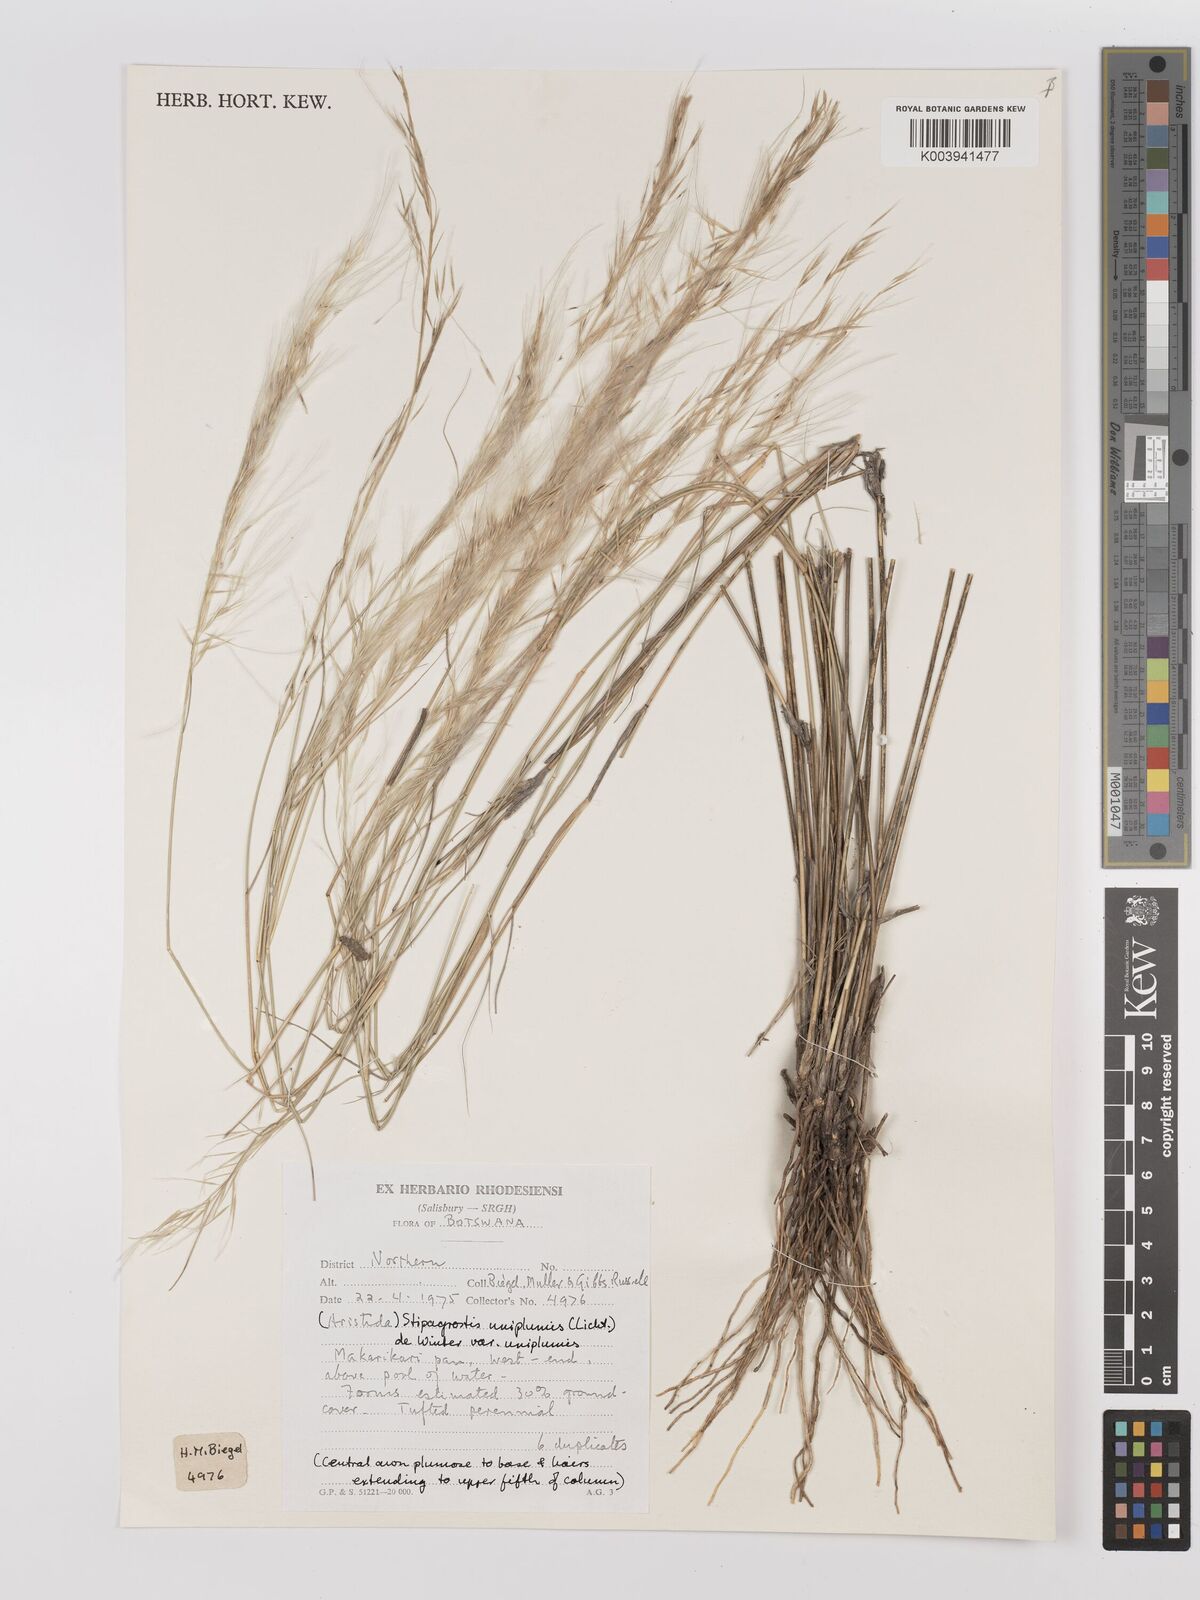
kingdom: Plantae
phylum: Tracheophyta
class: Liliopsida
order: Poales
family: Poaceae
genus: Stipagrostis
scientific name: Stipagrostis uniplumis
